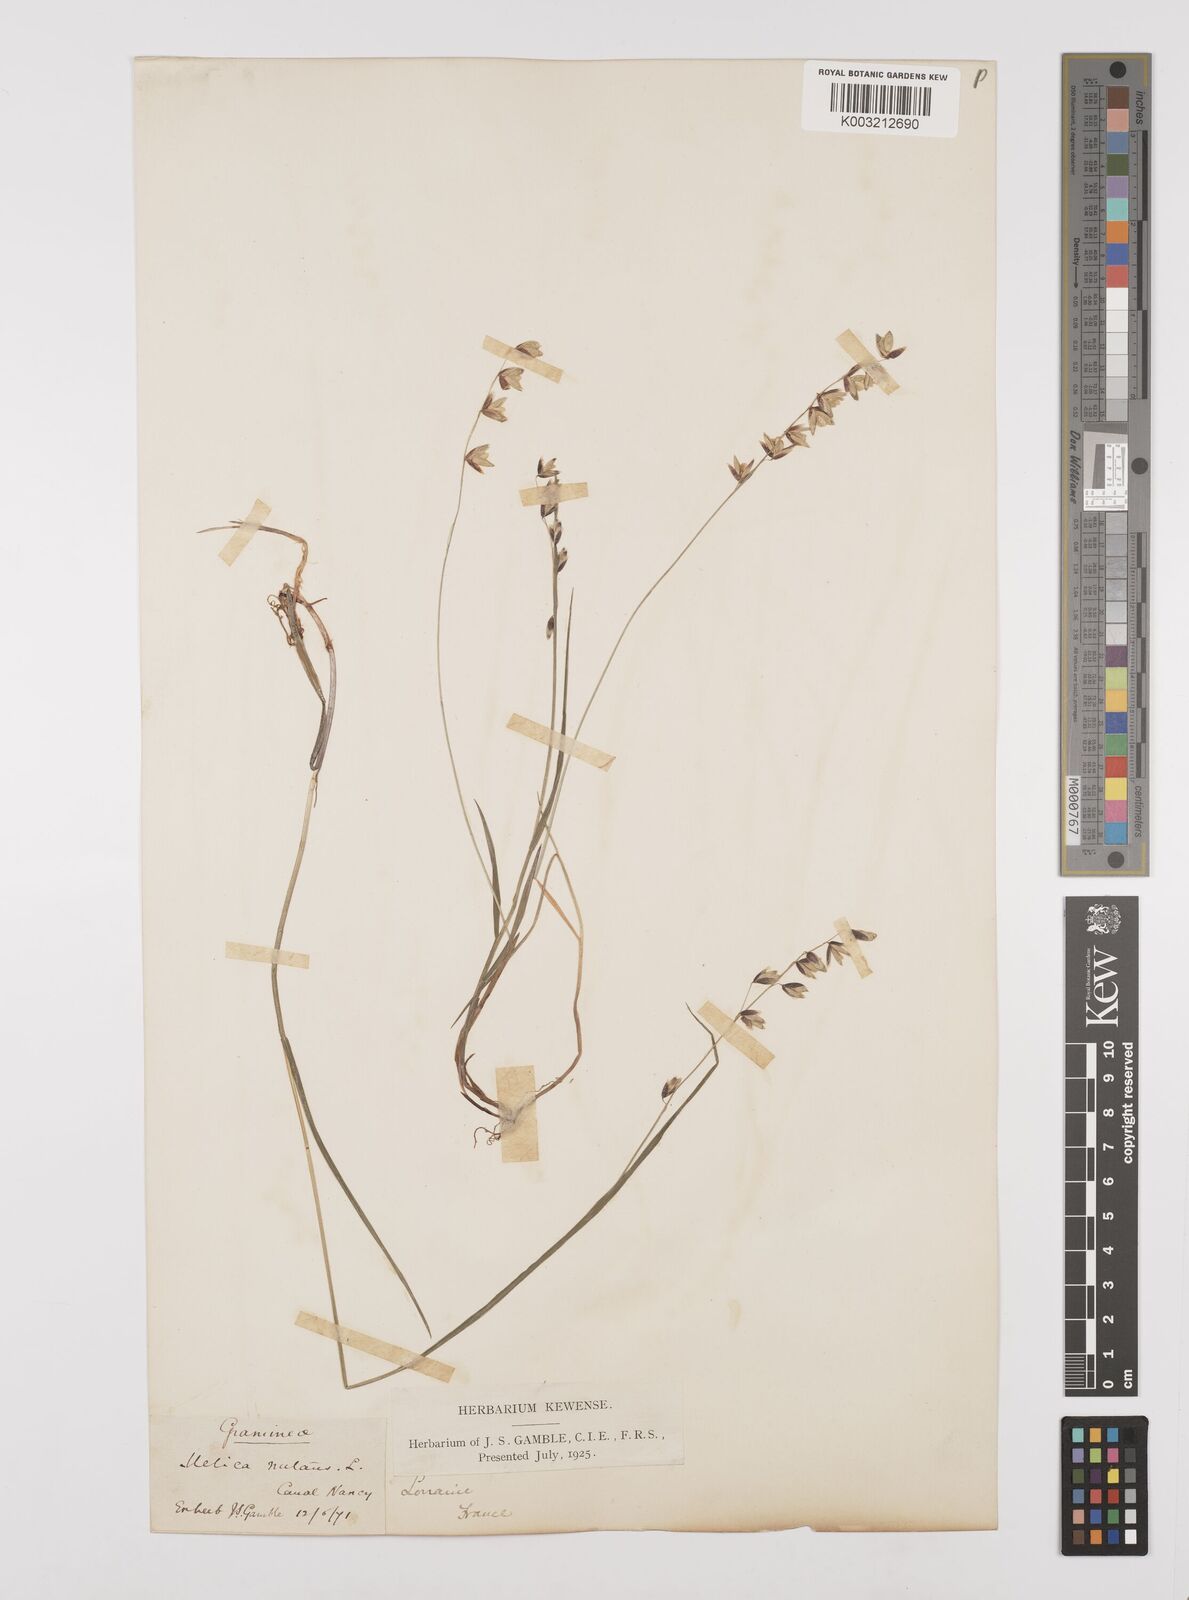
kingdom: Plantae
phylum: Tracheophyta
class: Liliopsida
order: Poales
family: Poaceae
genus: Melica
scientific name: Melica nutans
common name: Mountain melick
